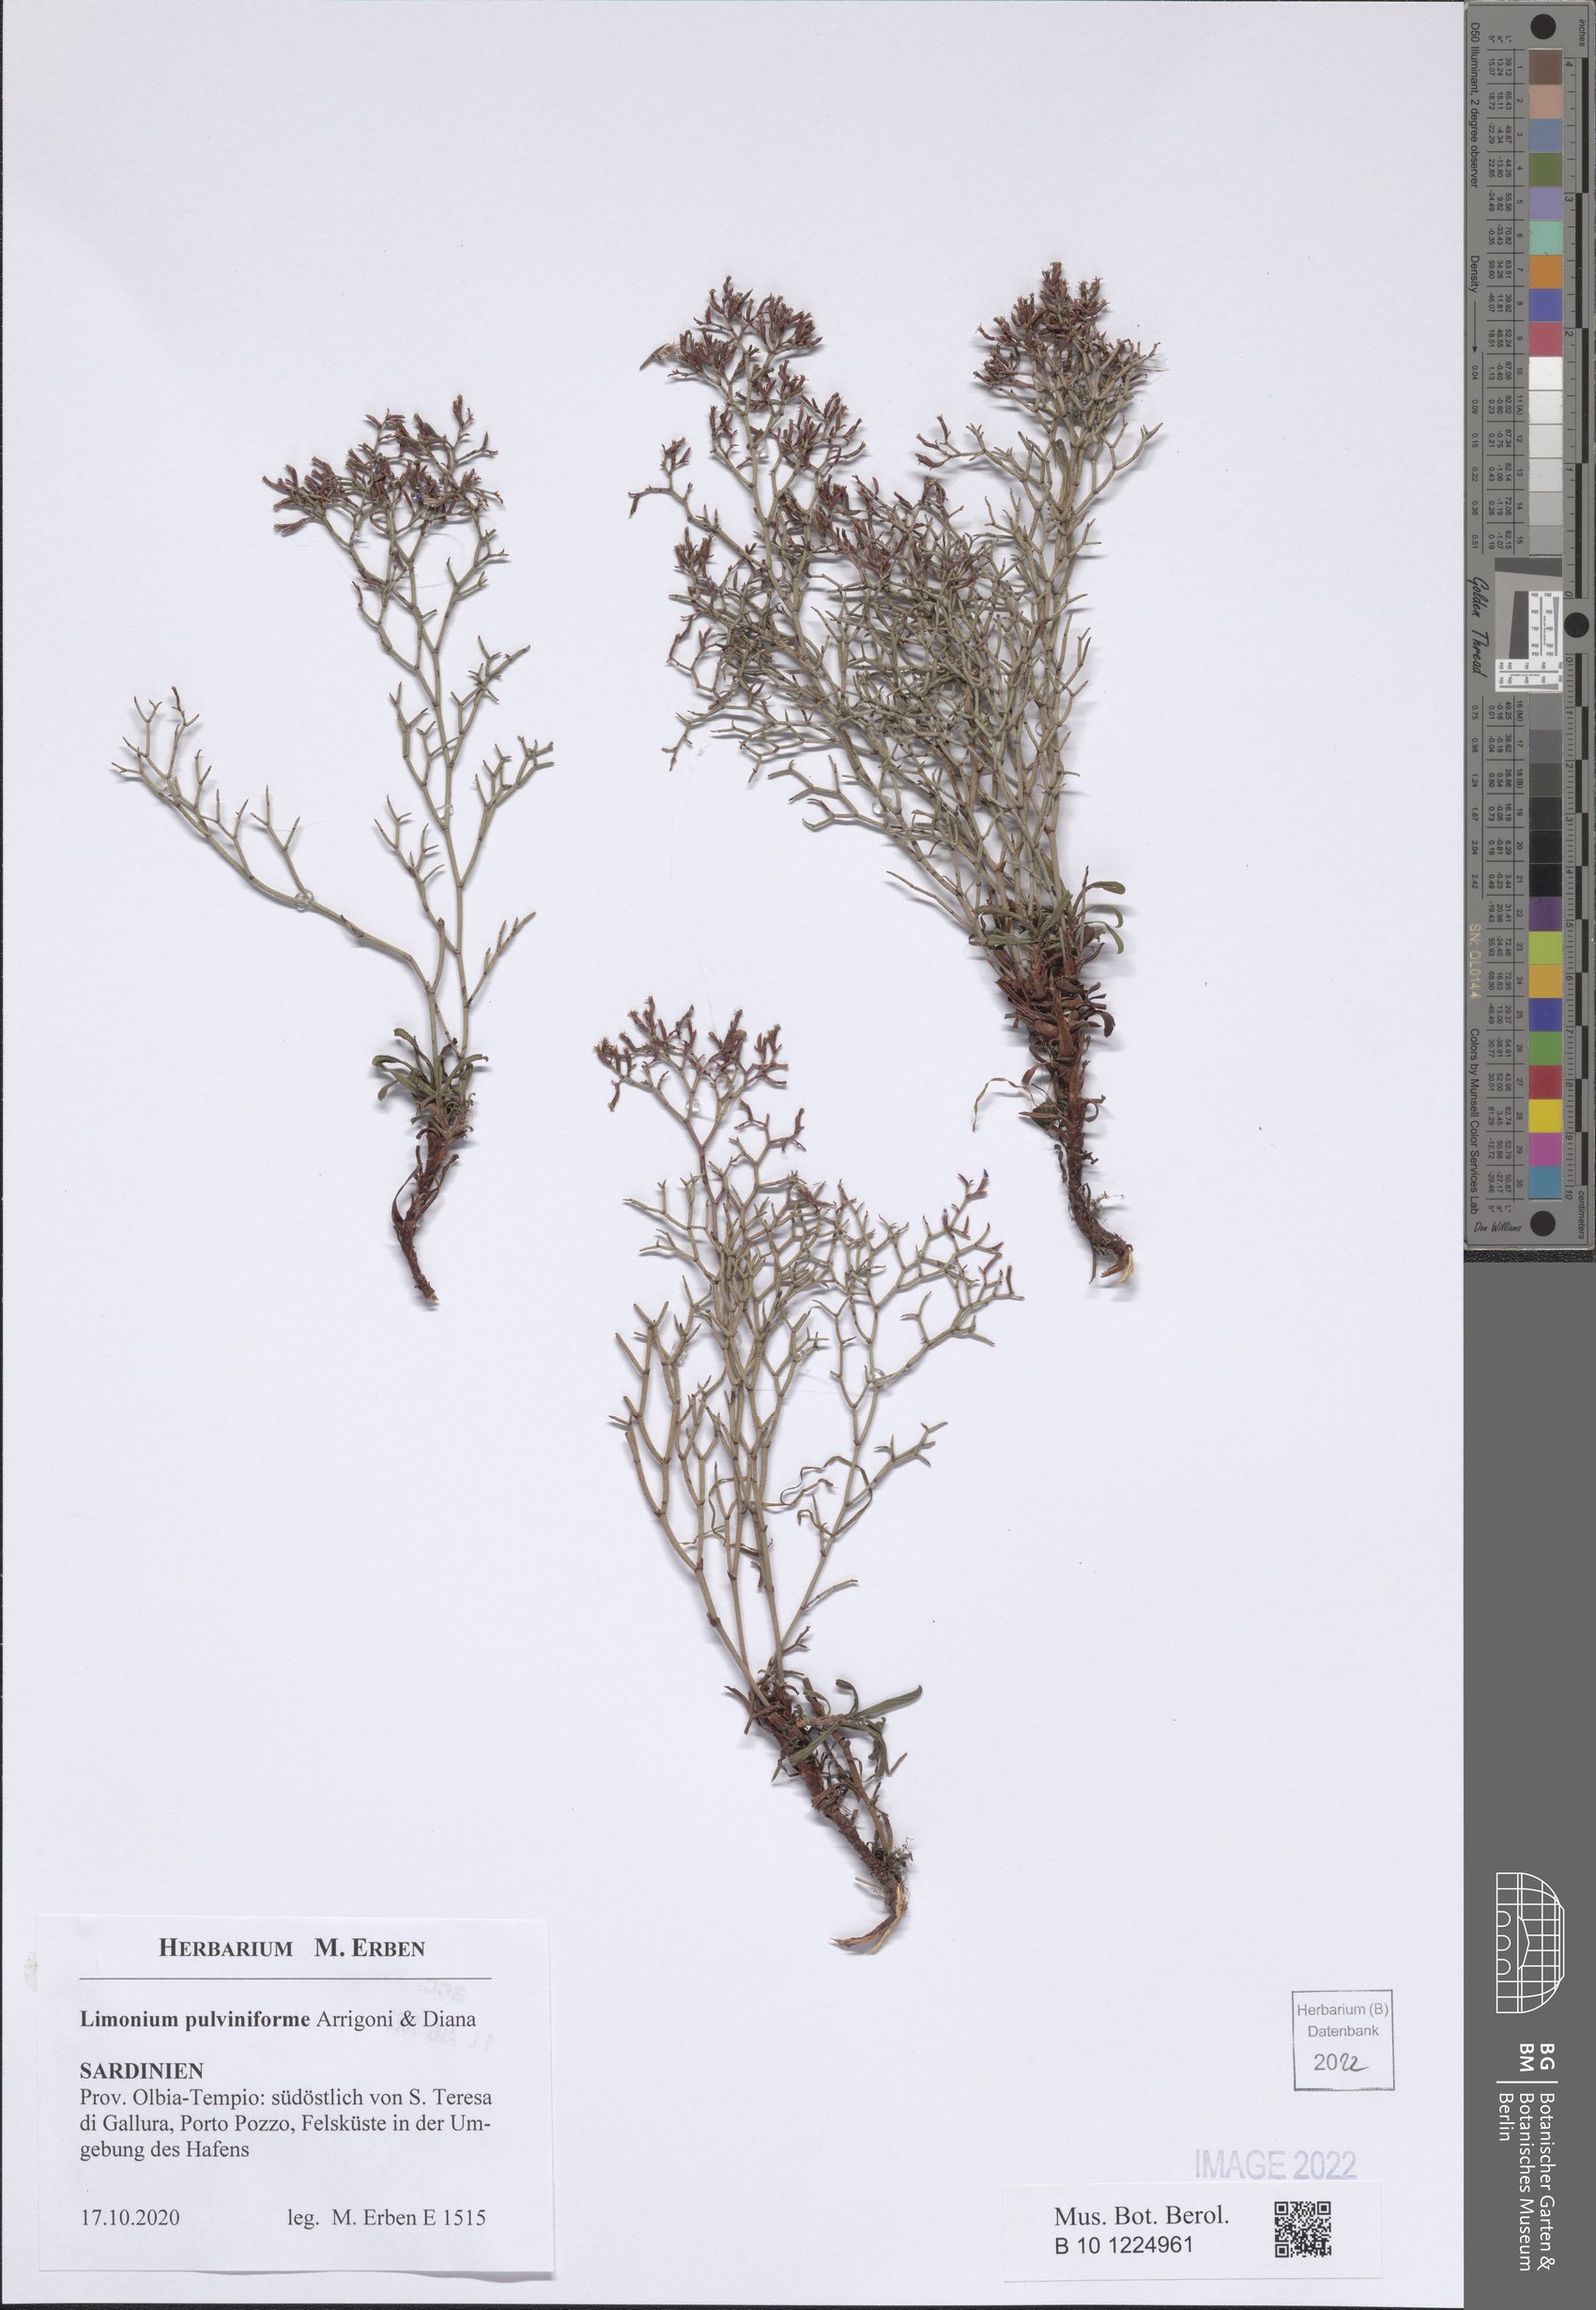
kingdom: Plantae
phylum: Tracheophyta
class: Magnoliopsida
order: Caryophyllales
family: Plumbaginaceae
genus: Limonium
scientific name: Limonium pulviniforme
